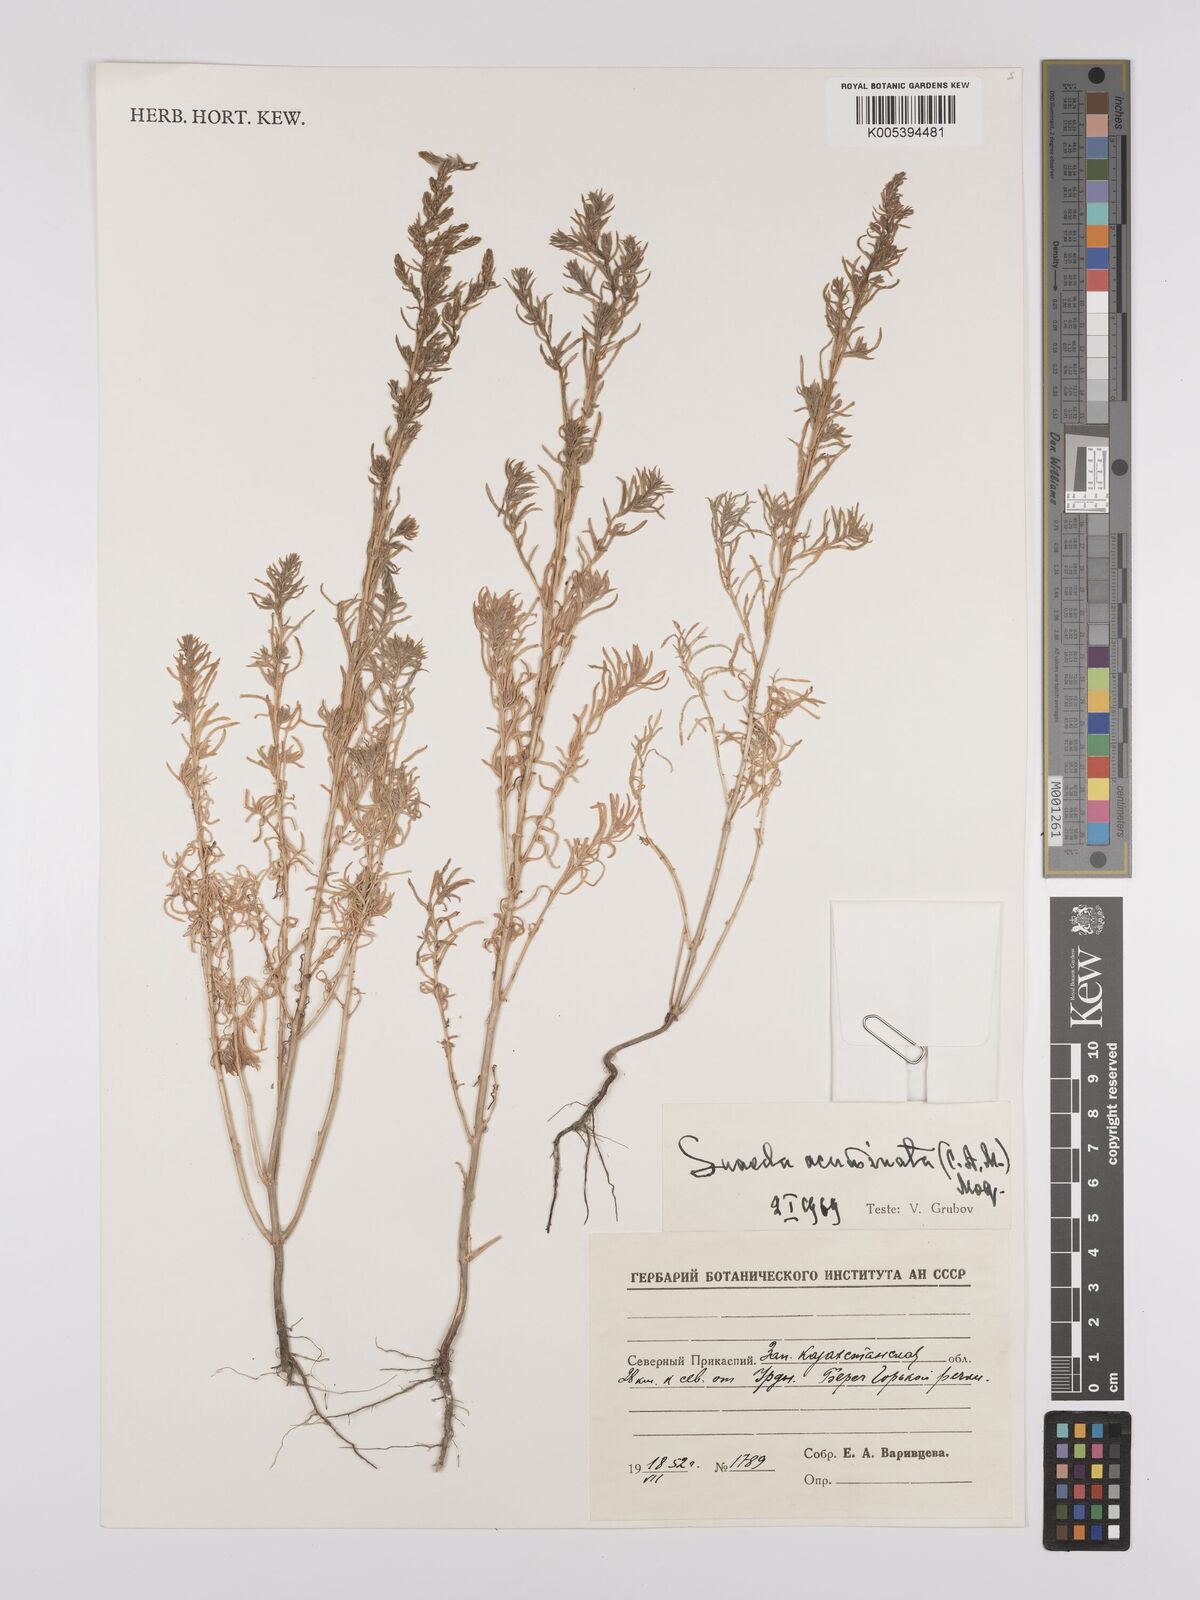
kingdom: Plantae
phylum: Tracheophyta
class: Magnoliopsida
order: Caryophyllales
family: Amaranthaceae
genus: Suaeda
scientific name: Suaeda acuminata
